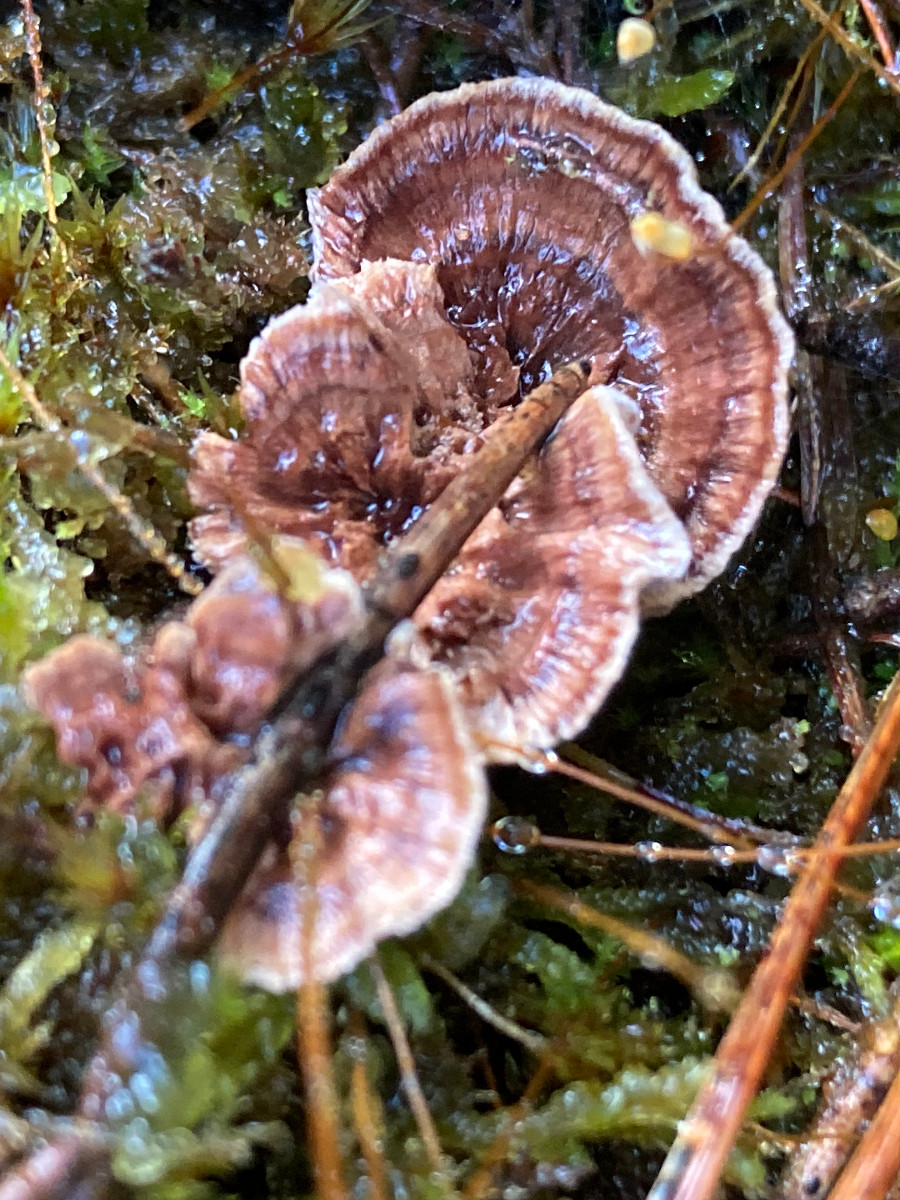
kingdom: Fungi
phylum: Basidiomycota
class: Agaricomycetes
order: Thelephorales
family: Bankeraceae
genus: Hydnellum
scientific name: Hydnellum concrescens
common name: bæltet korkpigsvamp
